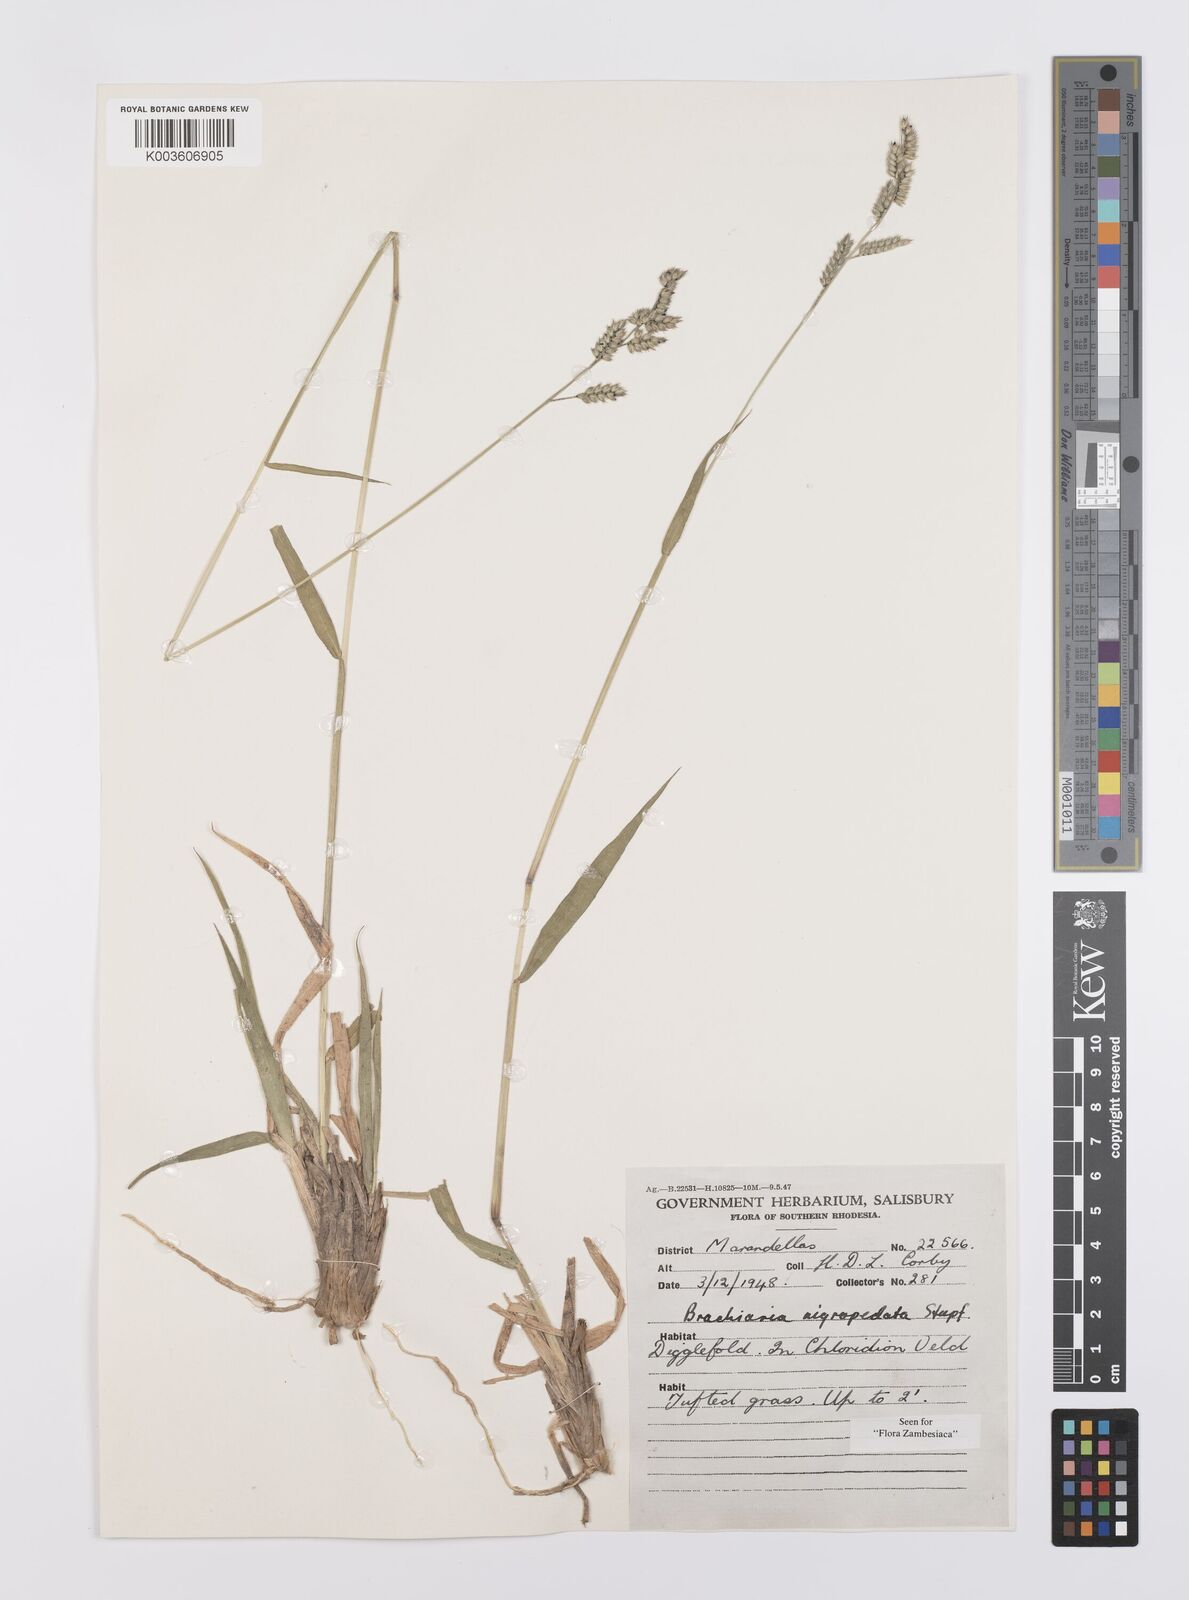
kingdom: Plantae
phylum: Tracheophyta
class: Liliopsida
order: Poales
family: Poaceae
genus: Urochloa
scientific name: Urochloa nigropedata
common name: Spotted signal grass
